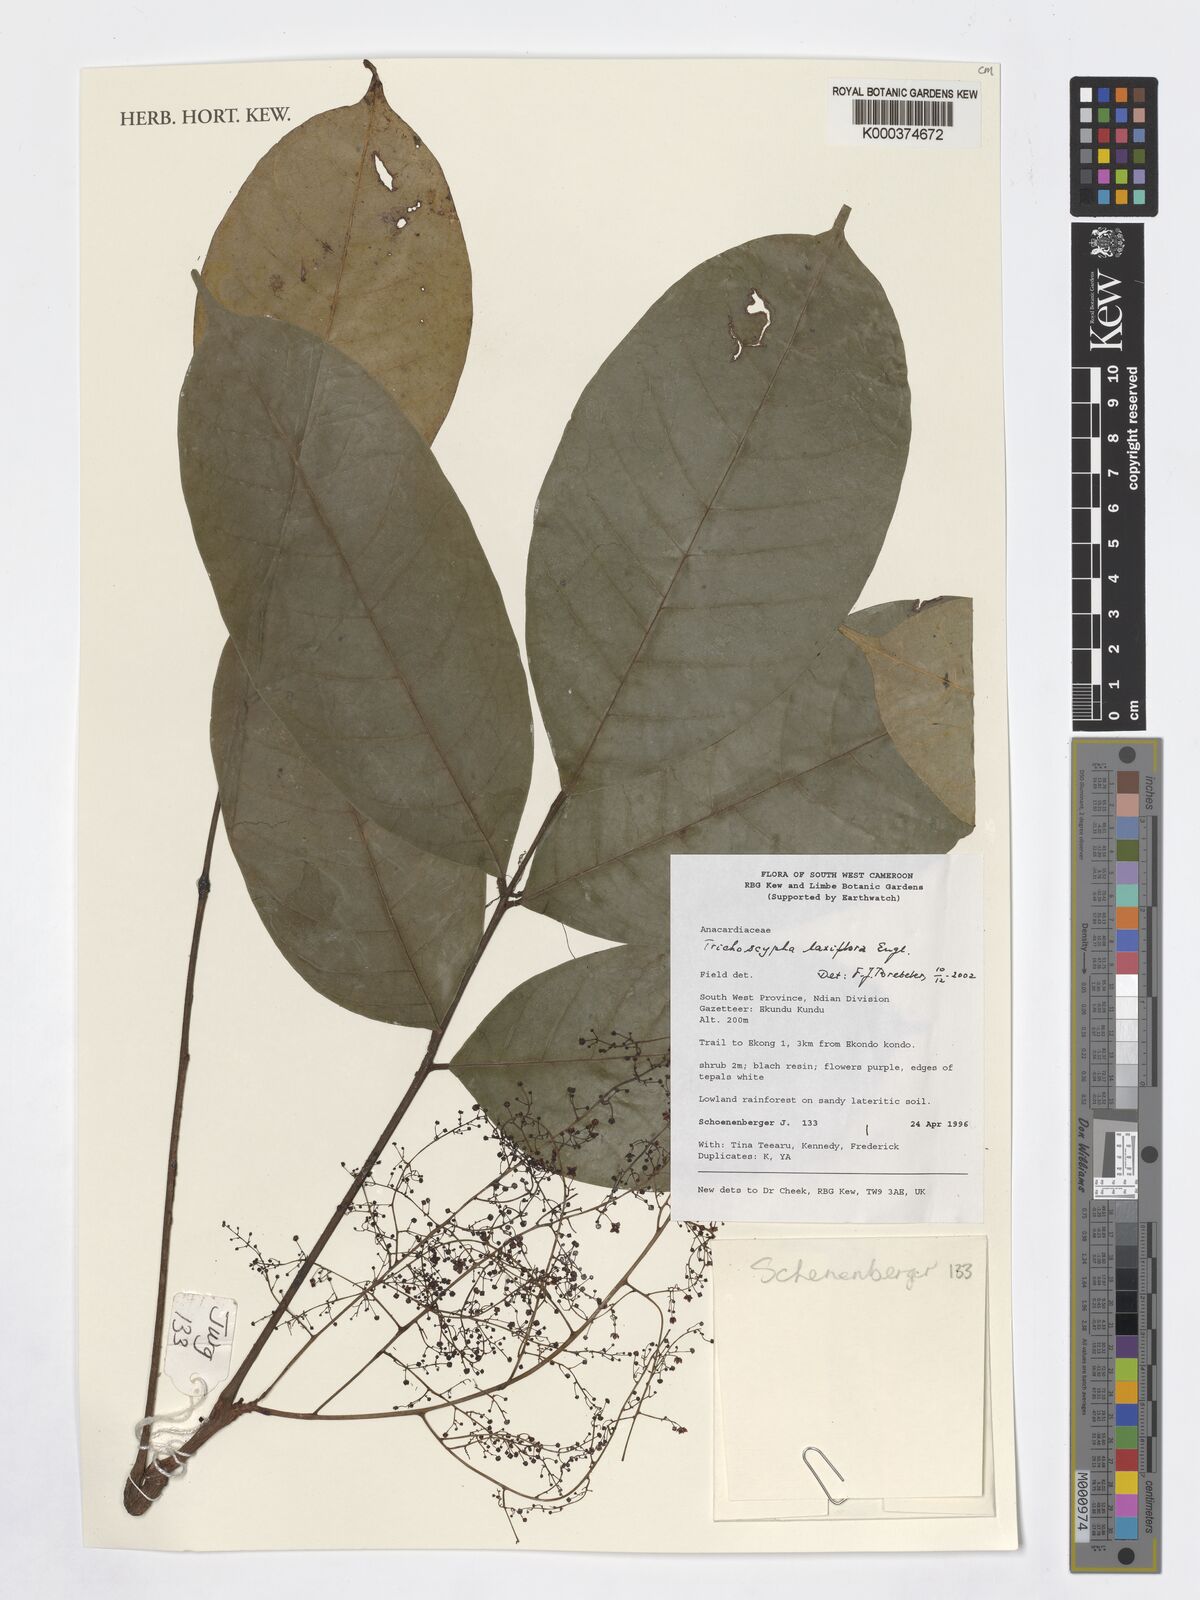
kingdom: Plantae
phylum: Tracheophyta
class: Magnoliopsida
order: Sapindales
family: Anacardiaceae
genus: Trichoscypha
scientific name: Trichoscypha laxiflora
